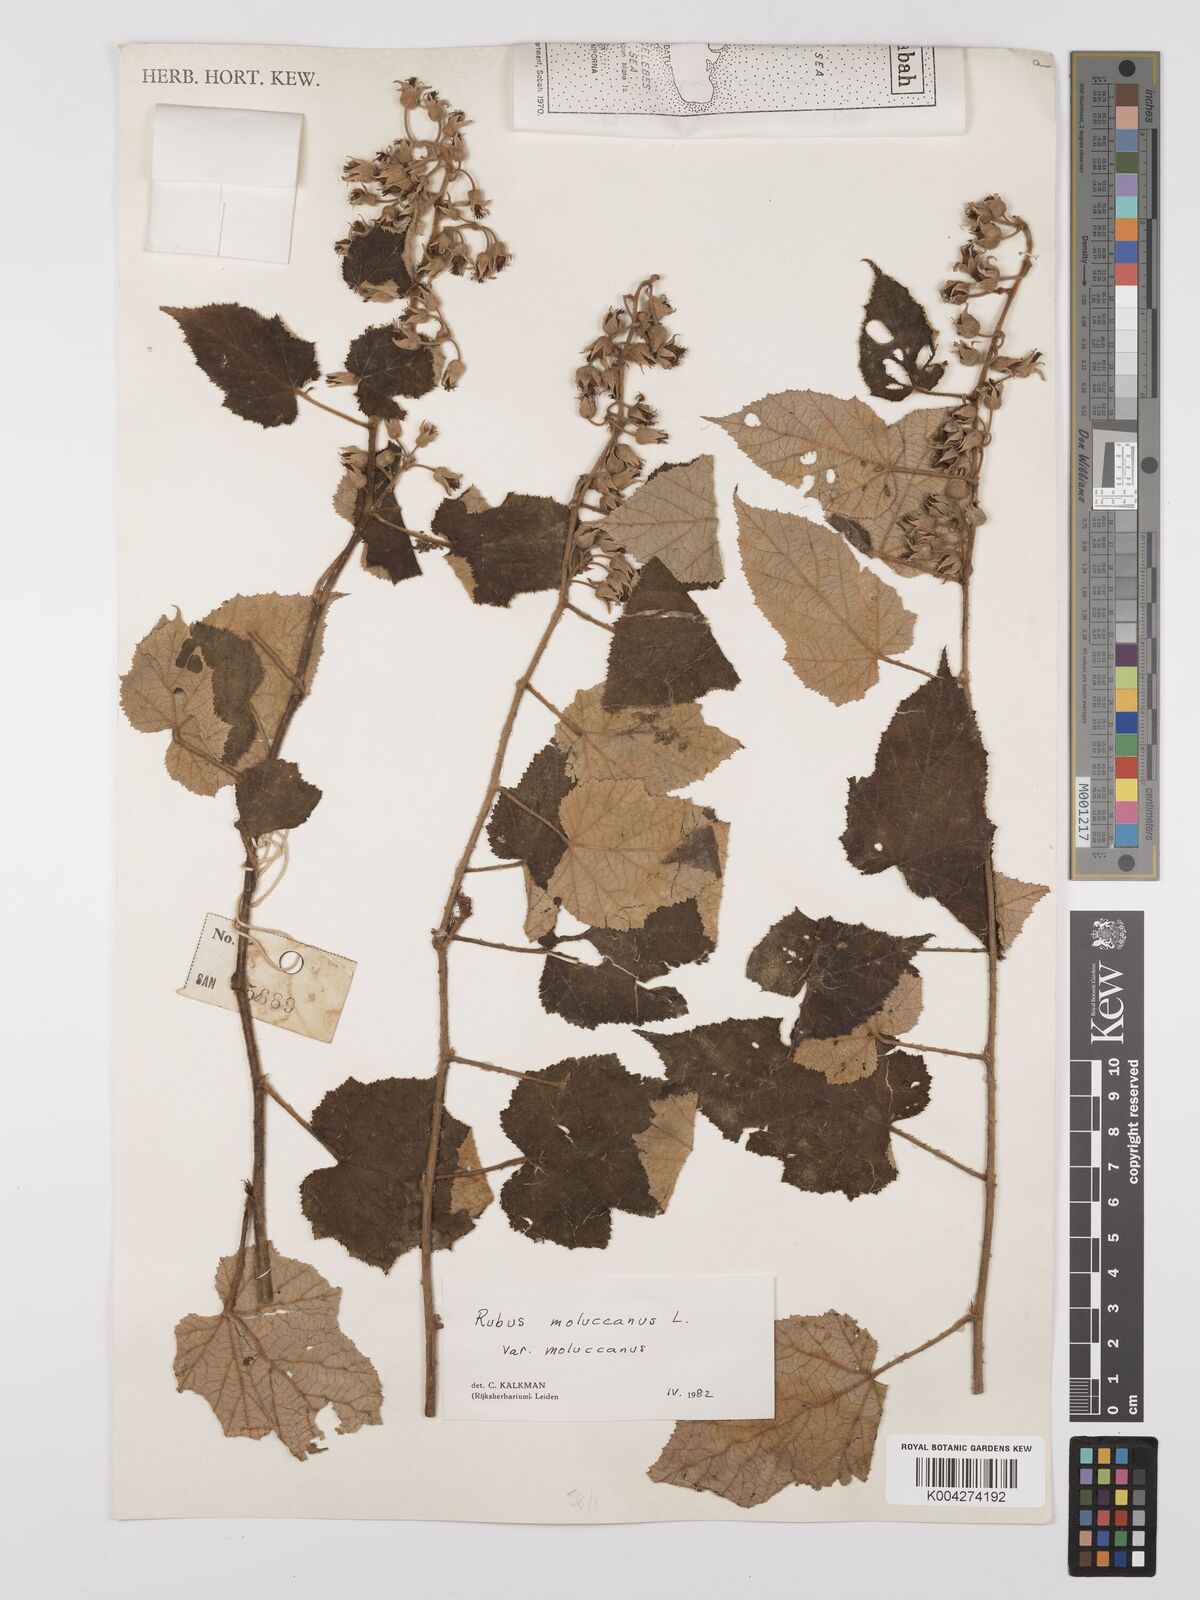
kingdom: Plantae
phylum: Tracheophyta
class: Magnoliopsida
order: Rosales
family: Rosaceae
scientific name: Rosaceae
